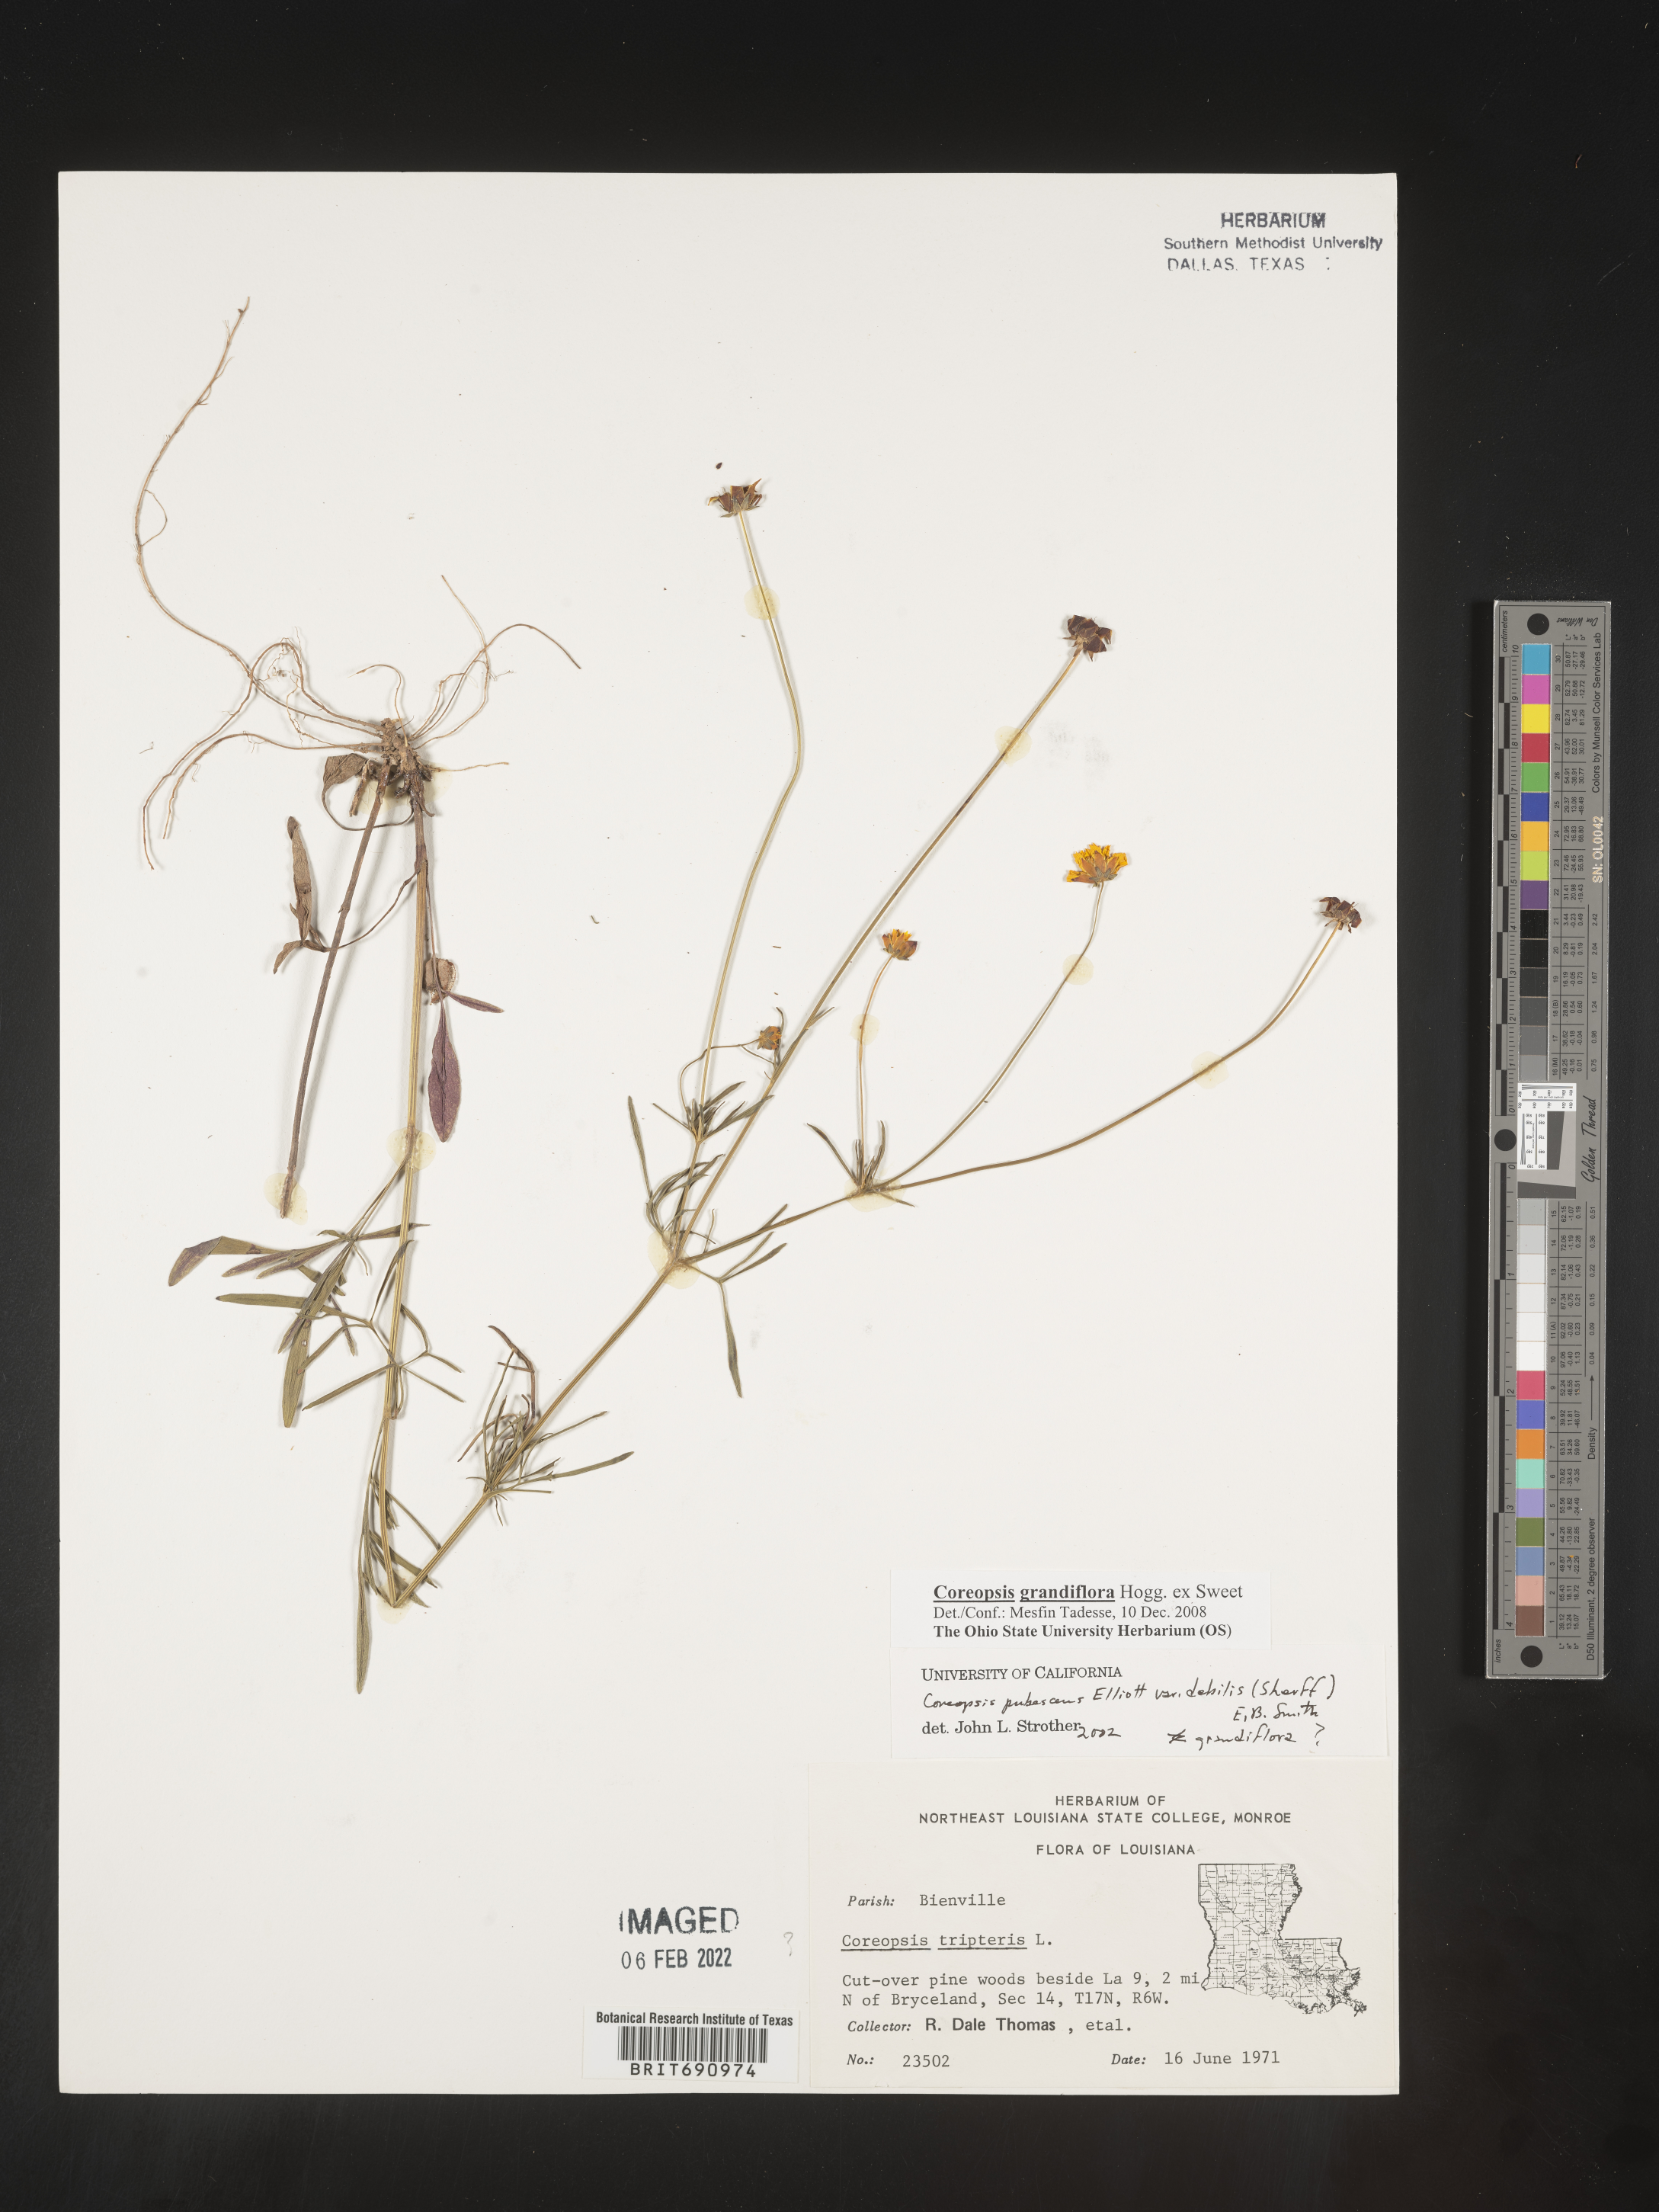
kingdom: Plantae
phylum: Tracheophyta
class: Magnoliopsida
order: Asterales
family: Asteraceae
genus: Coreopsis
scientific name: Coreopsis grandiflora
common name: Large-flowered tickseed
